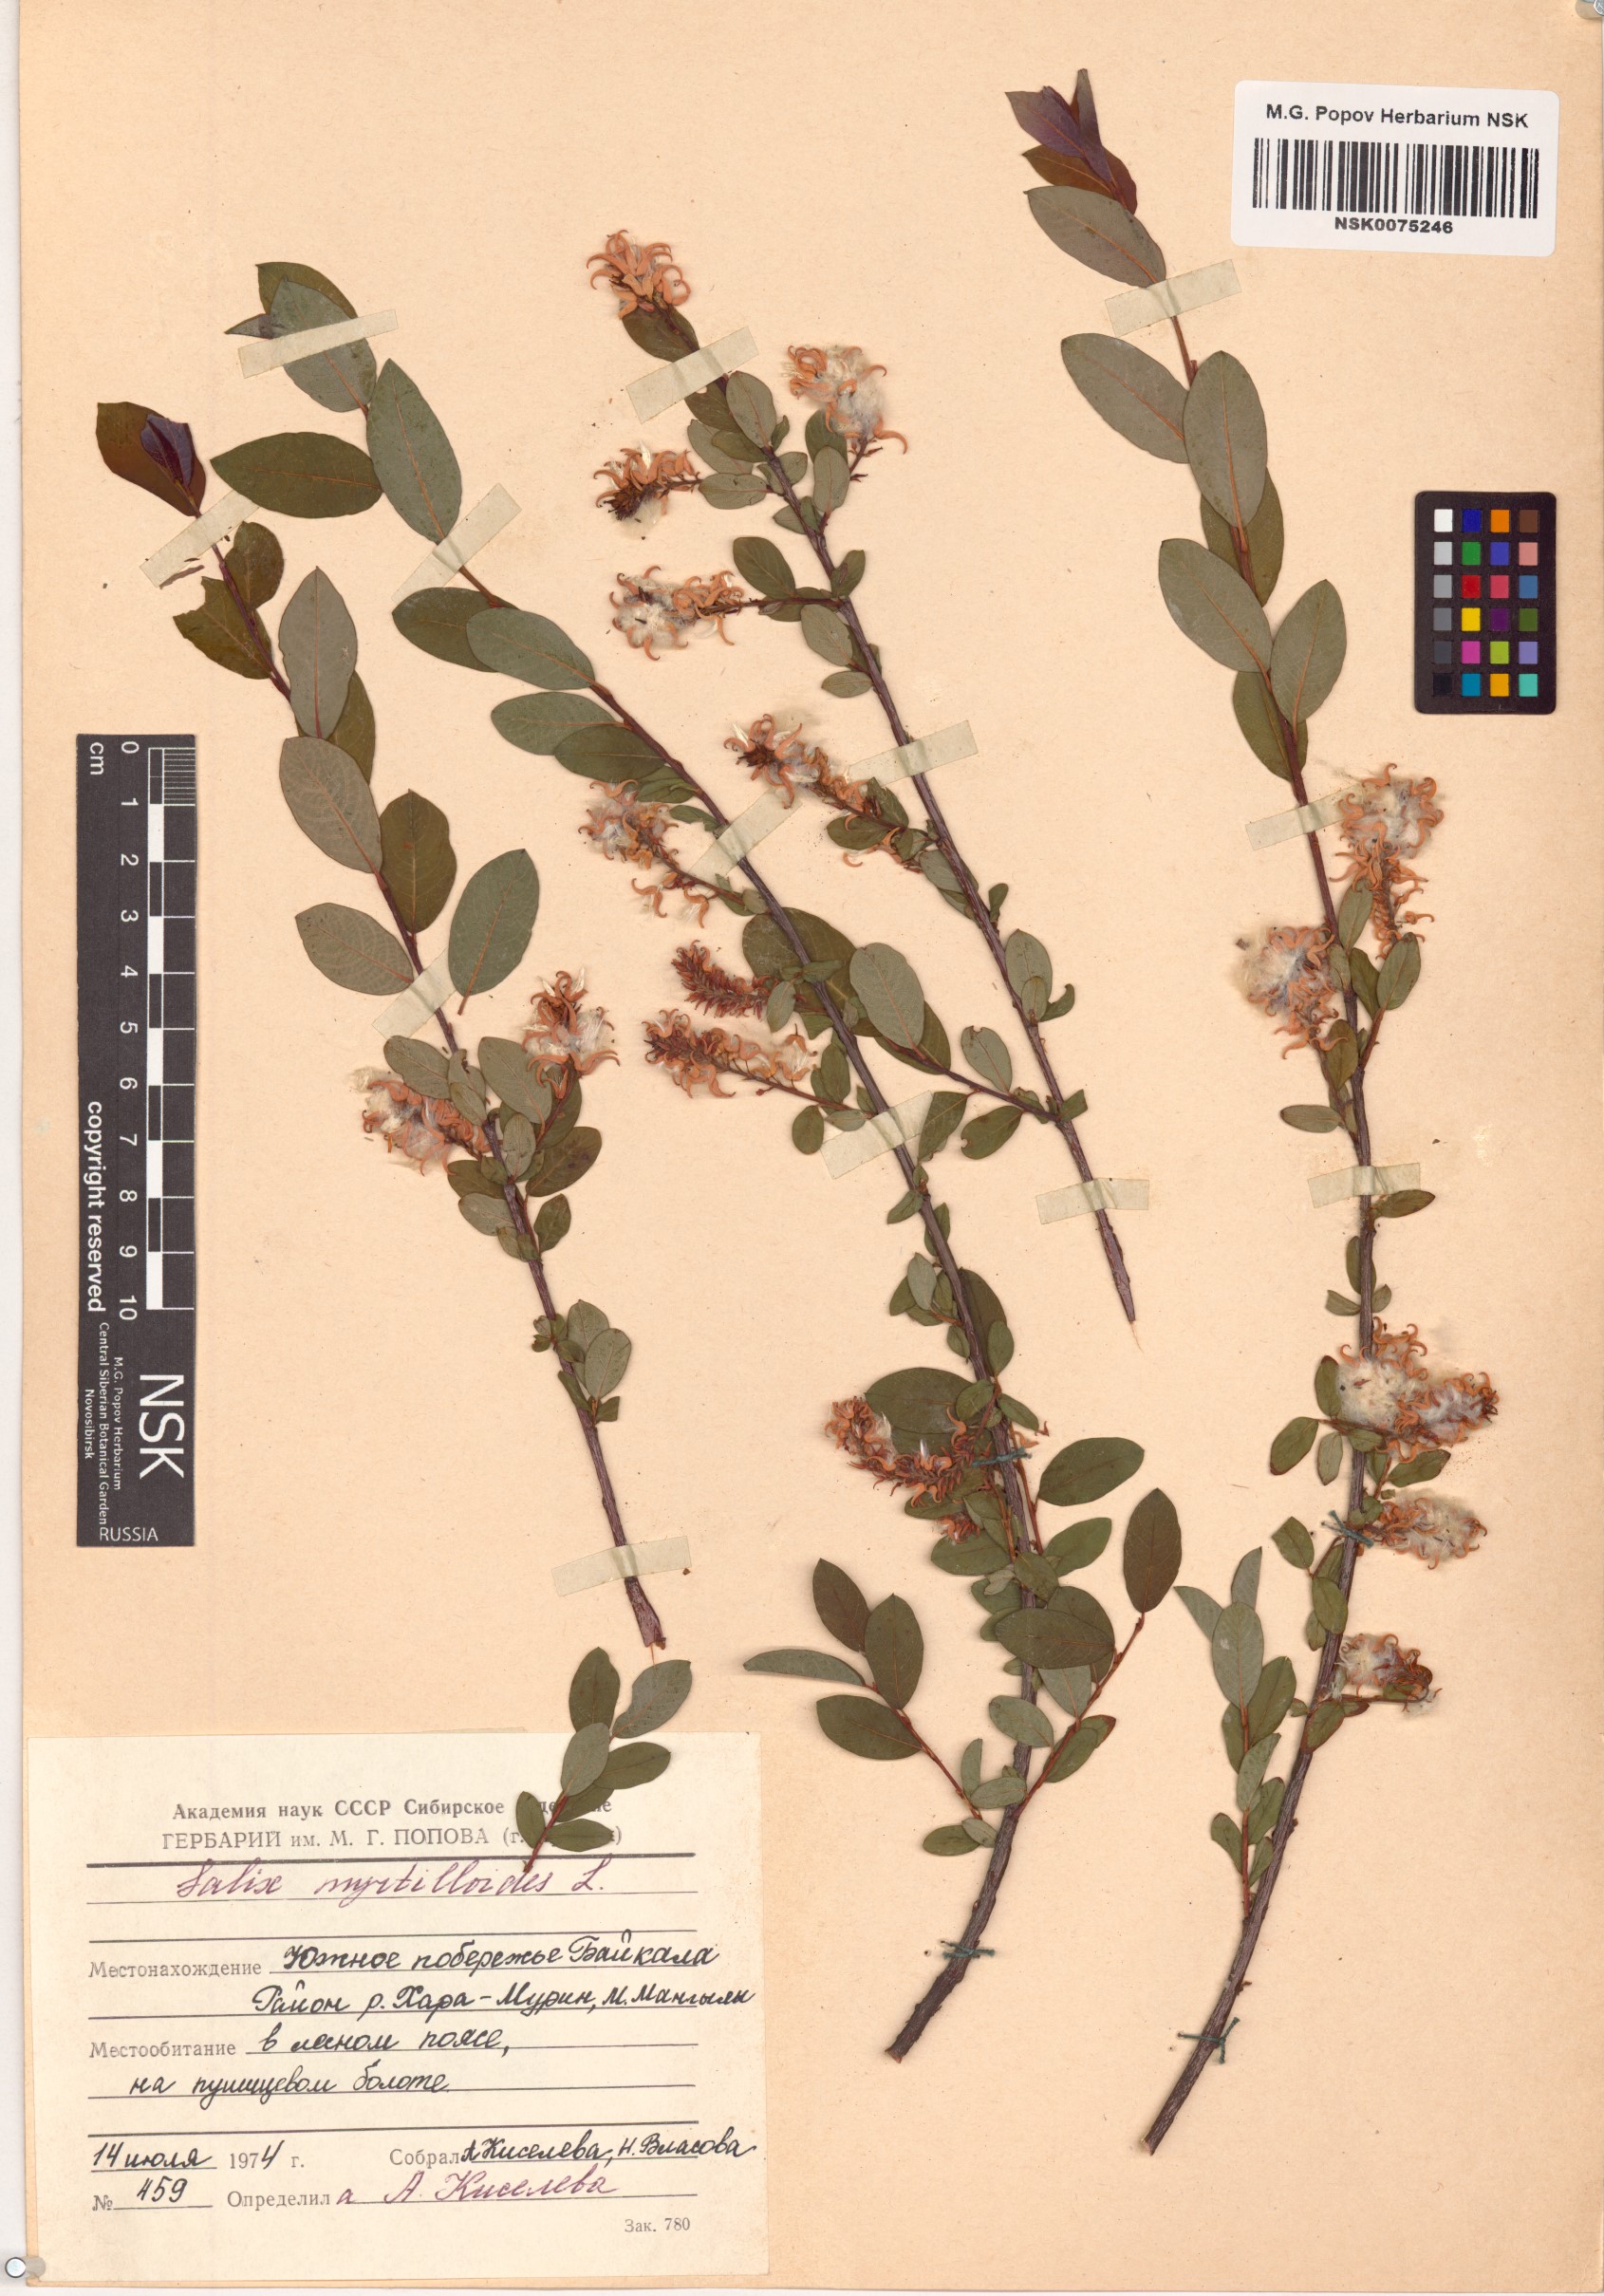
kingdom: Plantae
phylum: Tracheophyta
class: Magnoliopsida
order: Malpighiales
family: Salicaceae
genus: Salix
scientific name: Salix myrtilloides
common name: Myrtle-leaved willow
